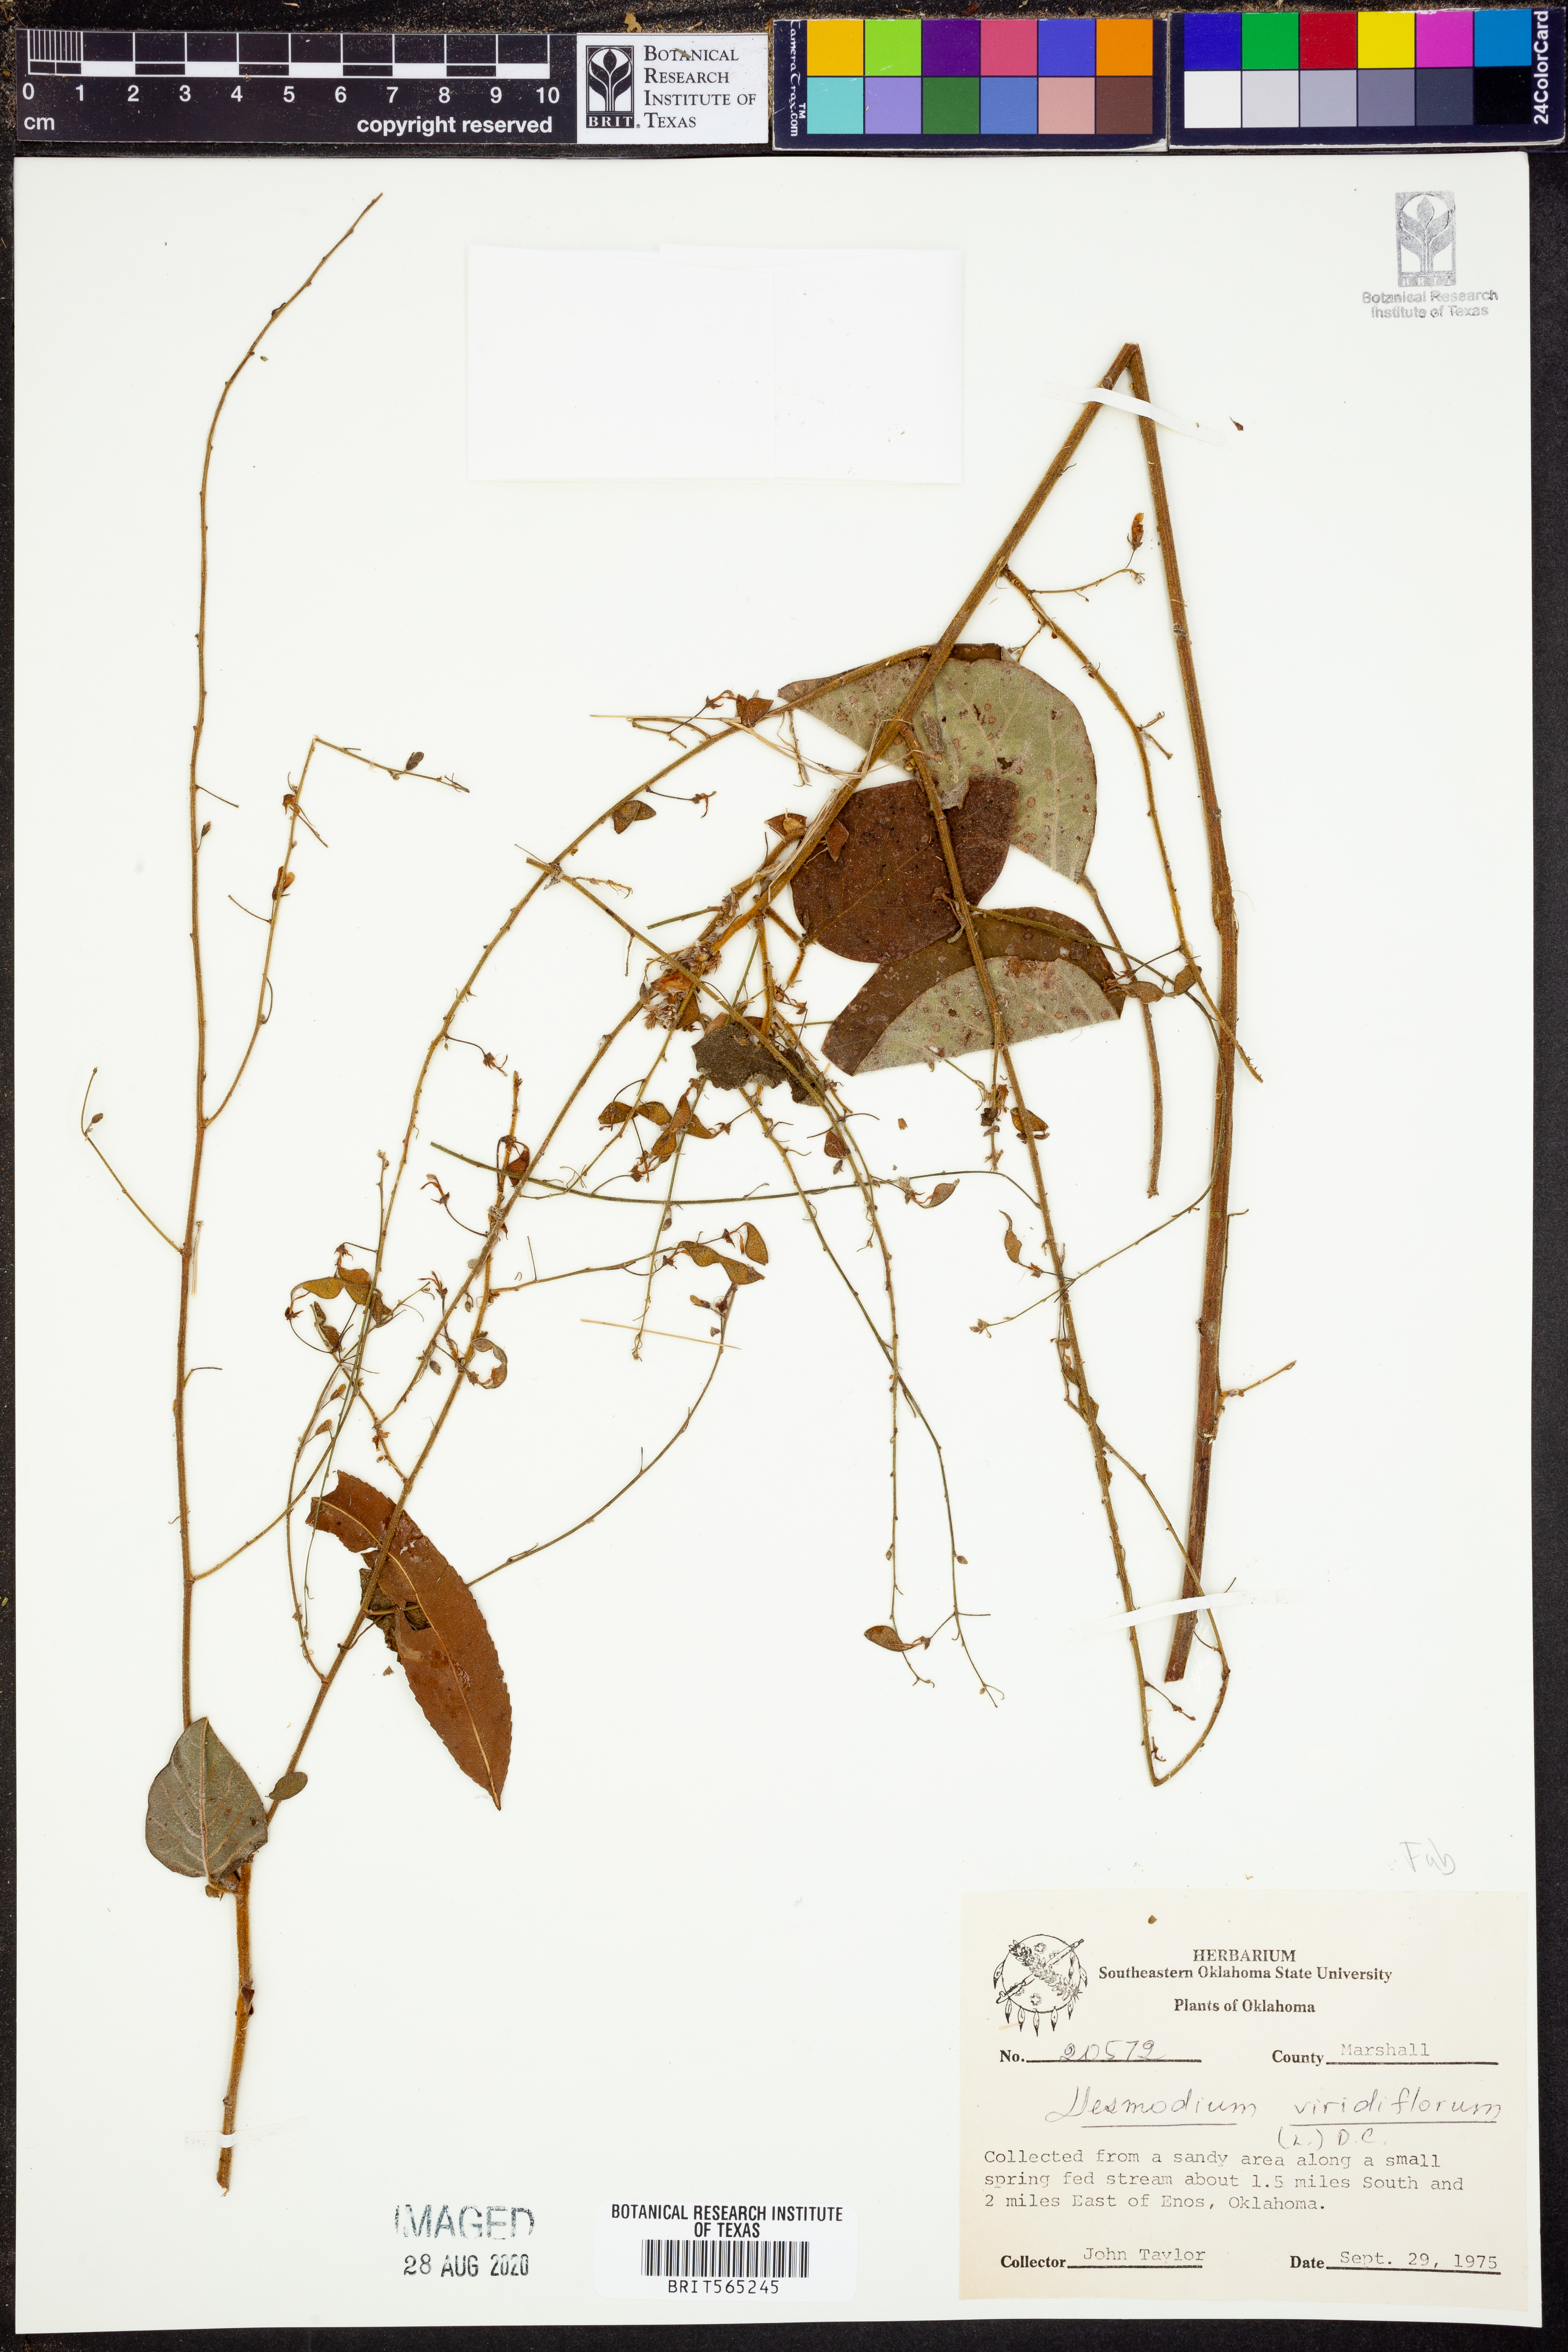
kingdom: Plantae
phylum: Tracheophyta
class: Magnoliopsida
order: Fabales
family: Fabaceae
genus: Desmodium
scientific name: Desmodium viridiflorum
